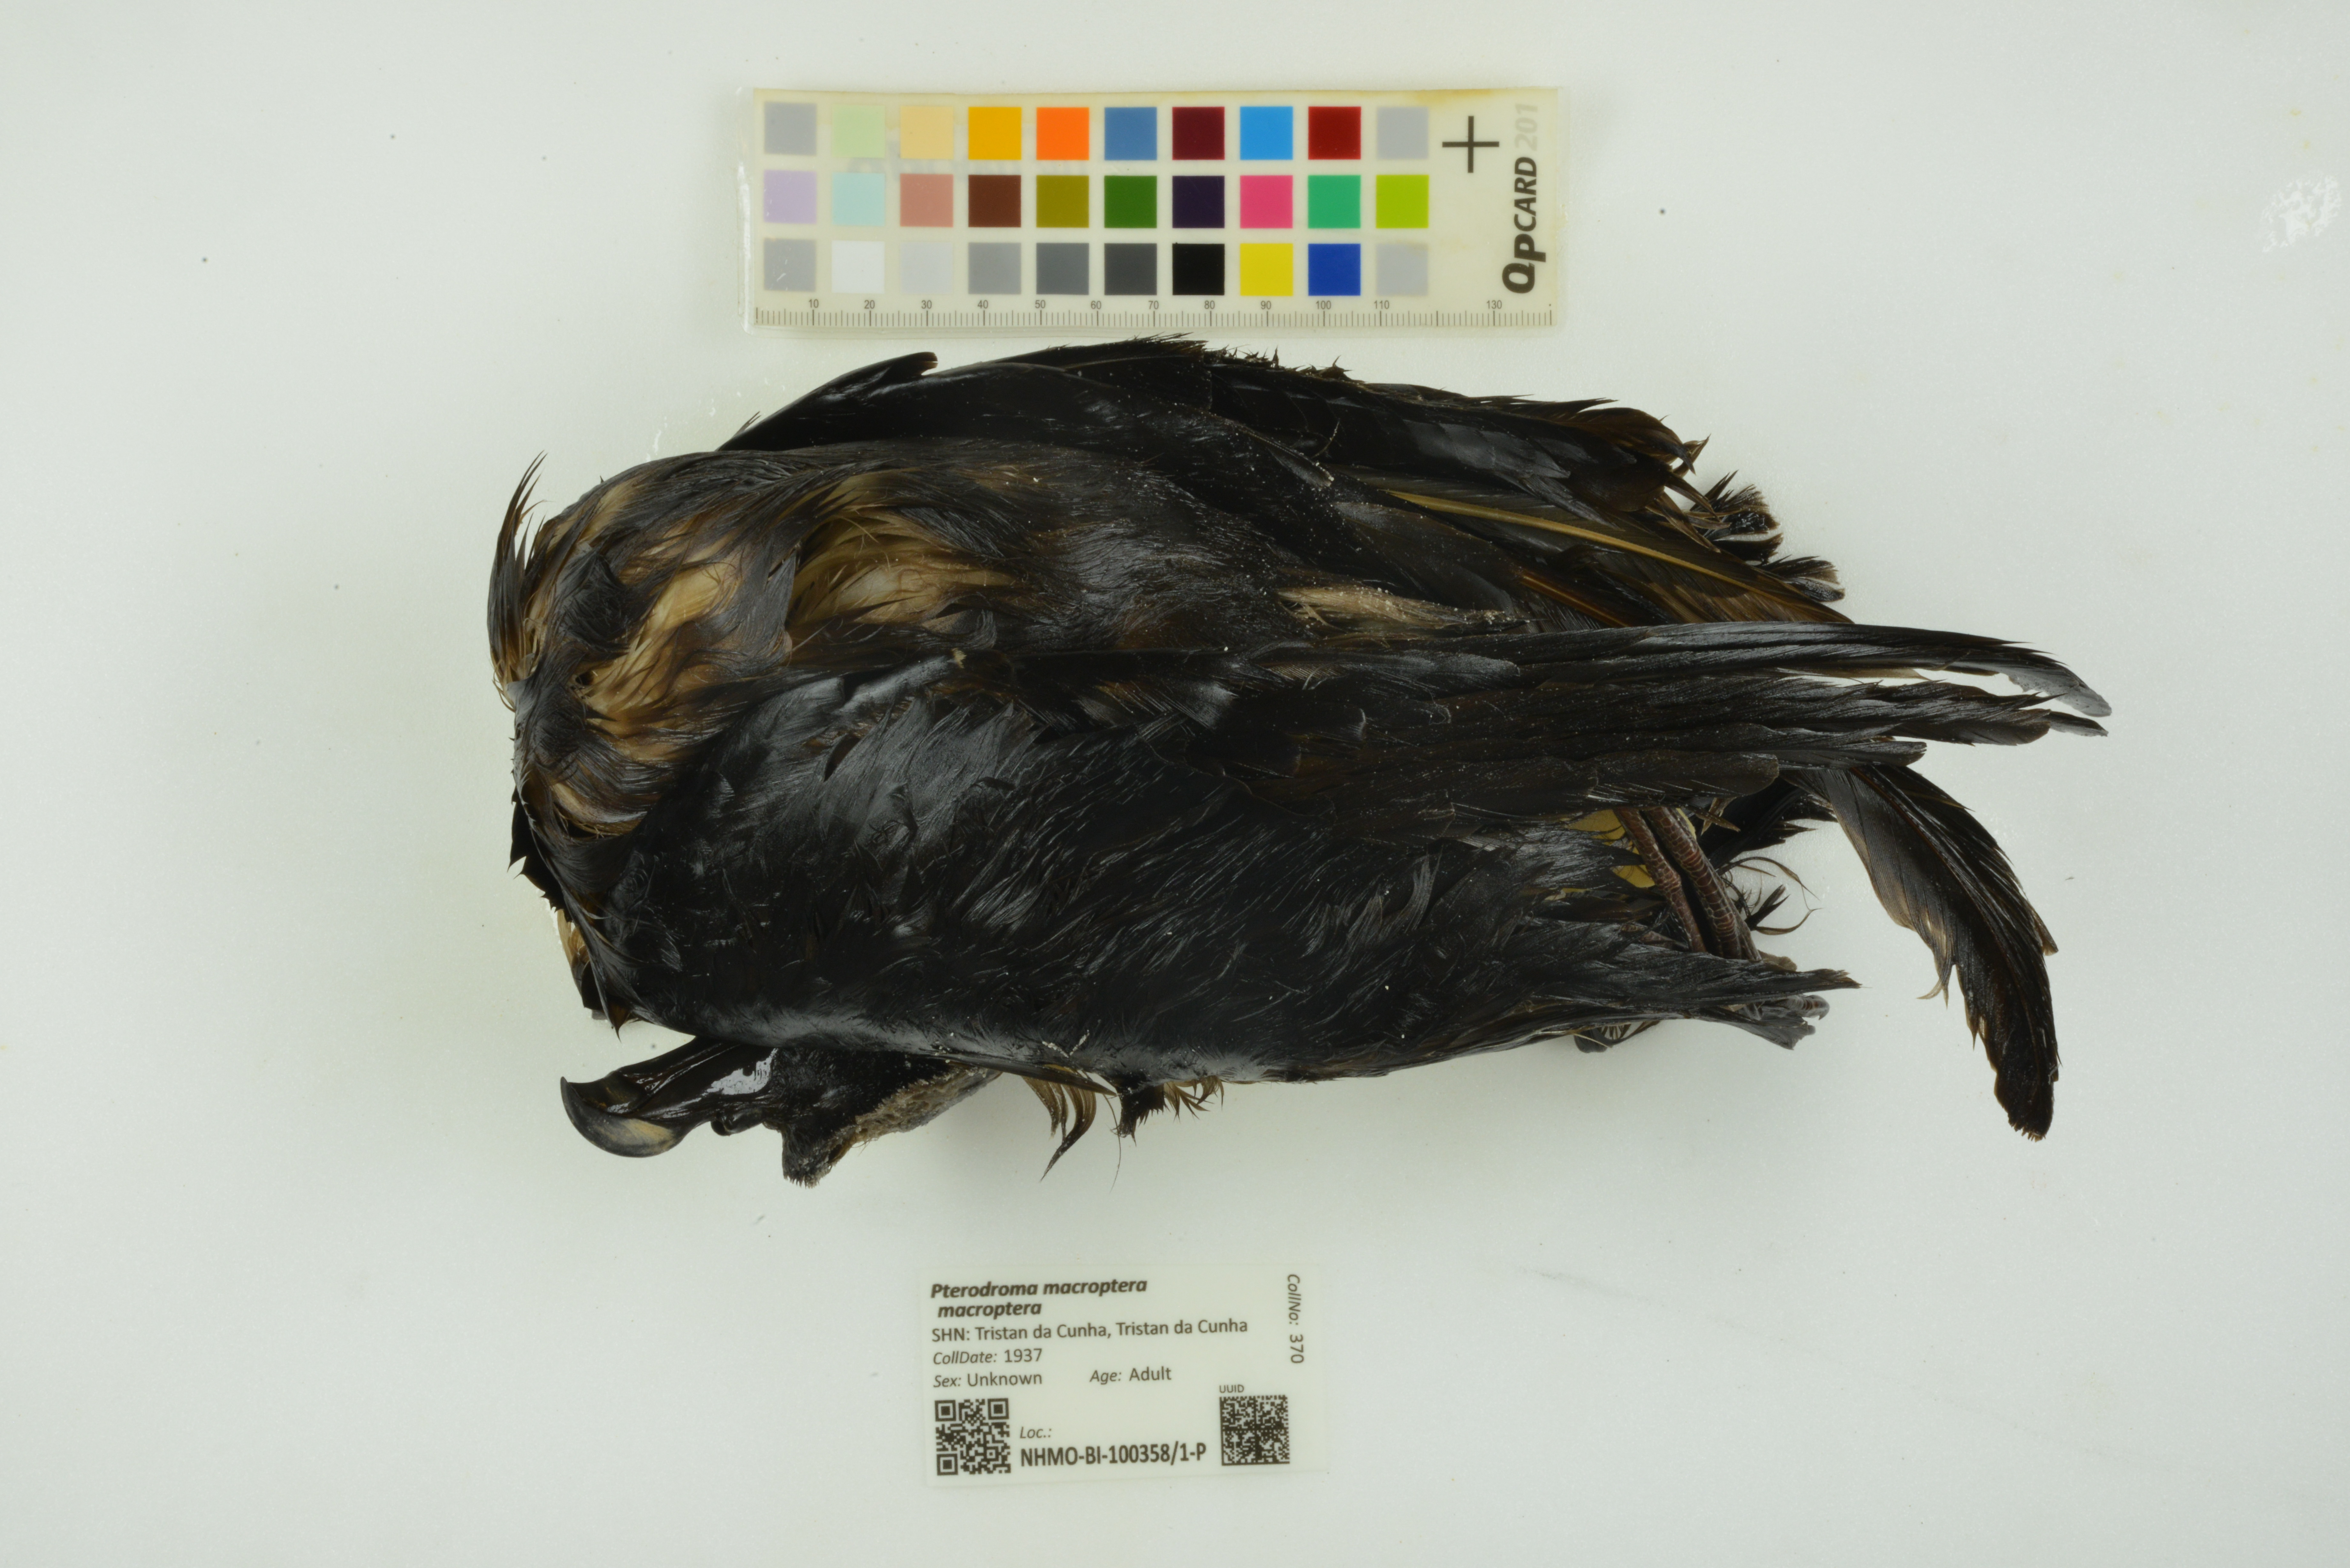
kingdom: Animalia
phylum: Chordata
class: Aves
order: Procellariiformes
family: Procellariidae
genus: Pterodroma
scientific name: Pterodroma macroptera
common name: Great-winged petrel
